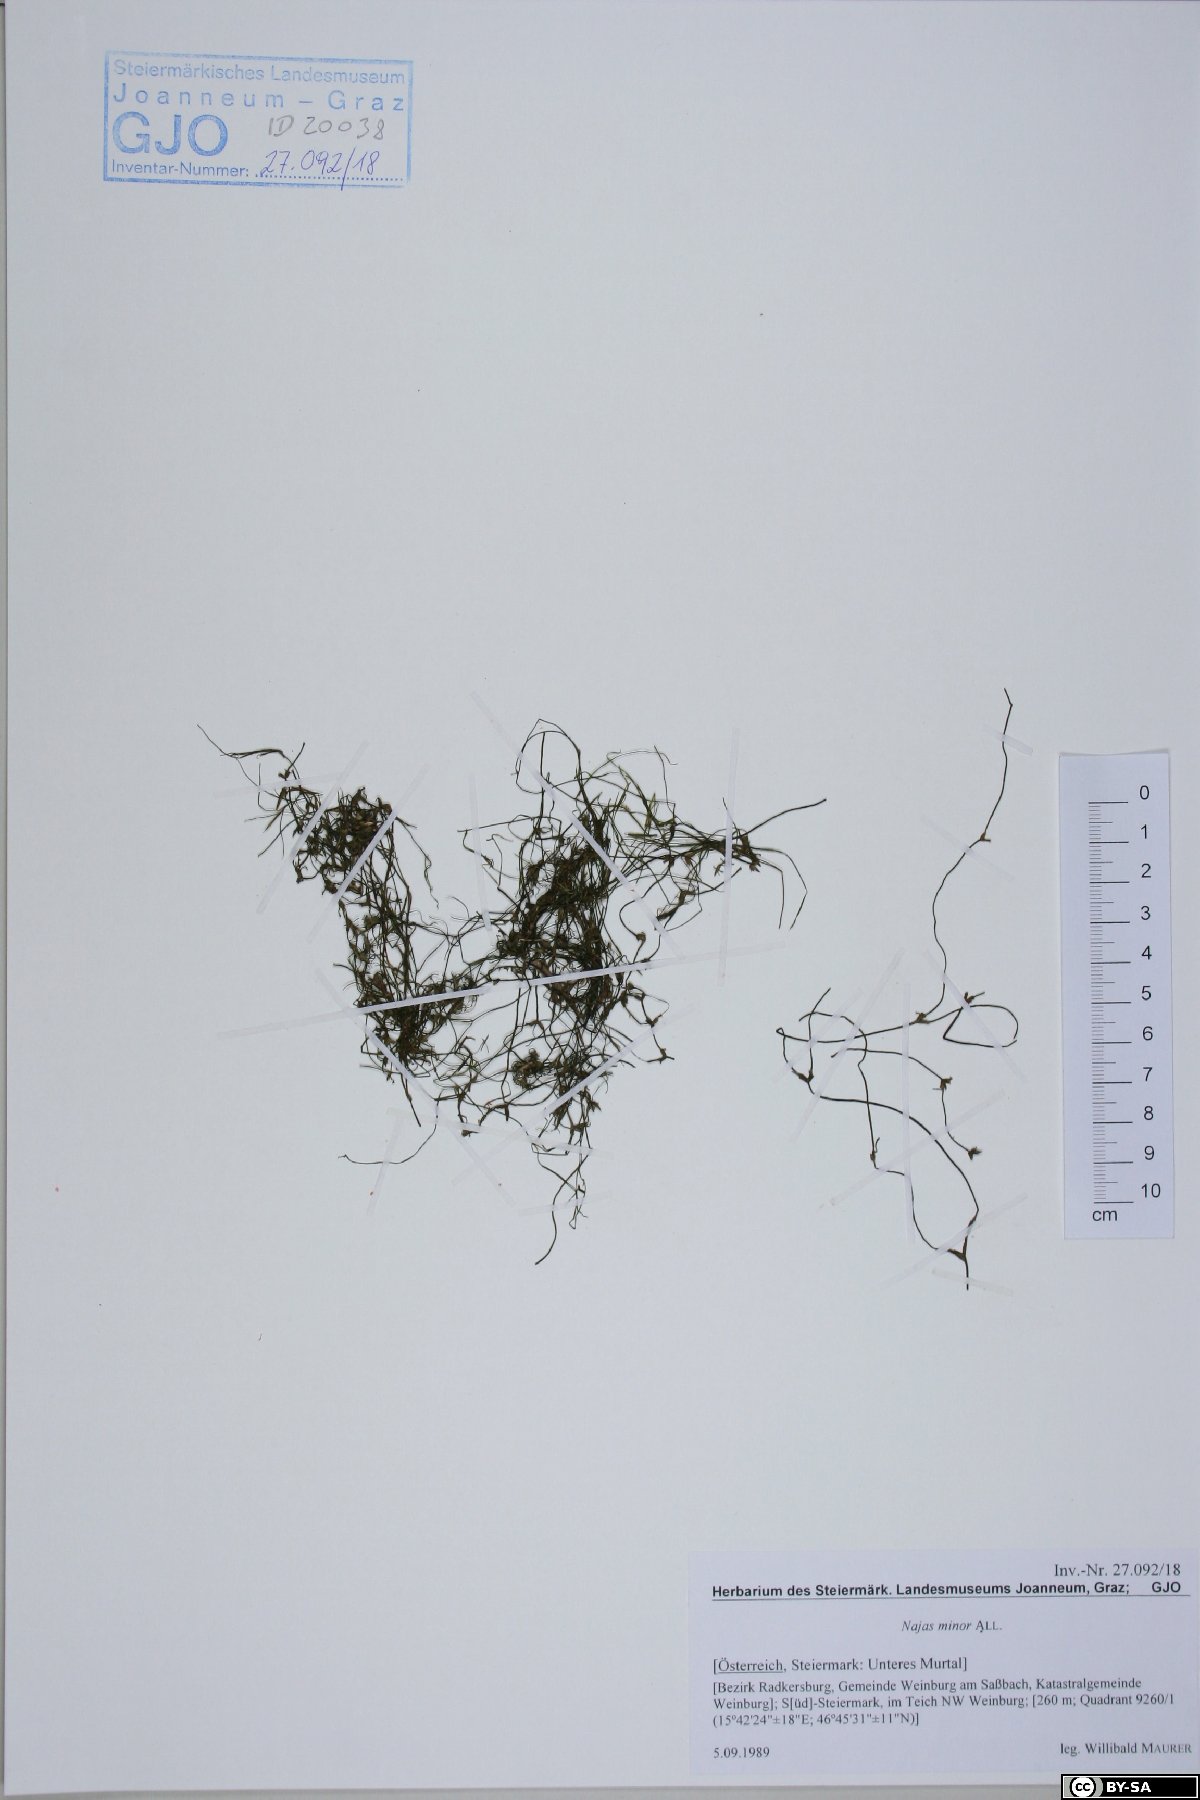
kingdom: Plantae
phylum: Tracheophyta
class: Liliopsida
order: Alismatales
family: Hydrocharitaceae
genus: Najas
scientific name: Najas minor
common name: Brittle naiad
